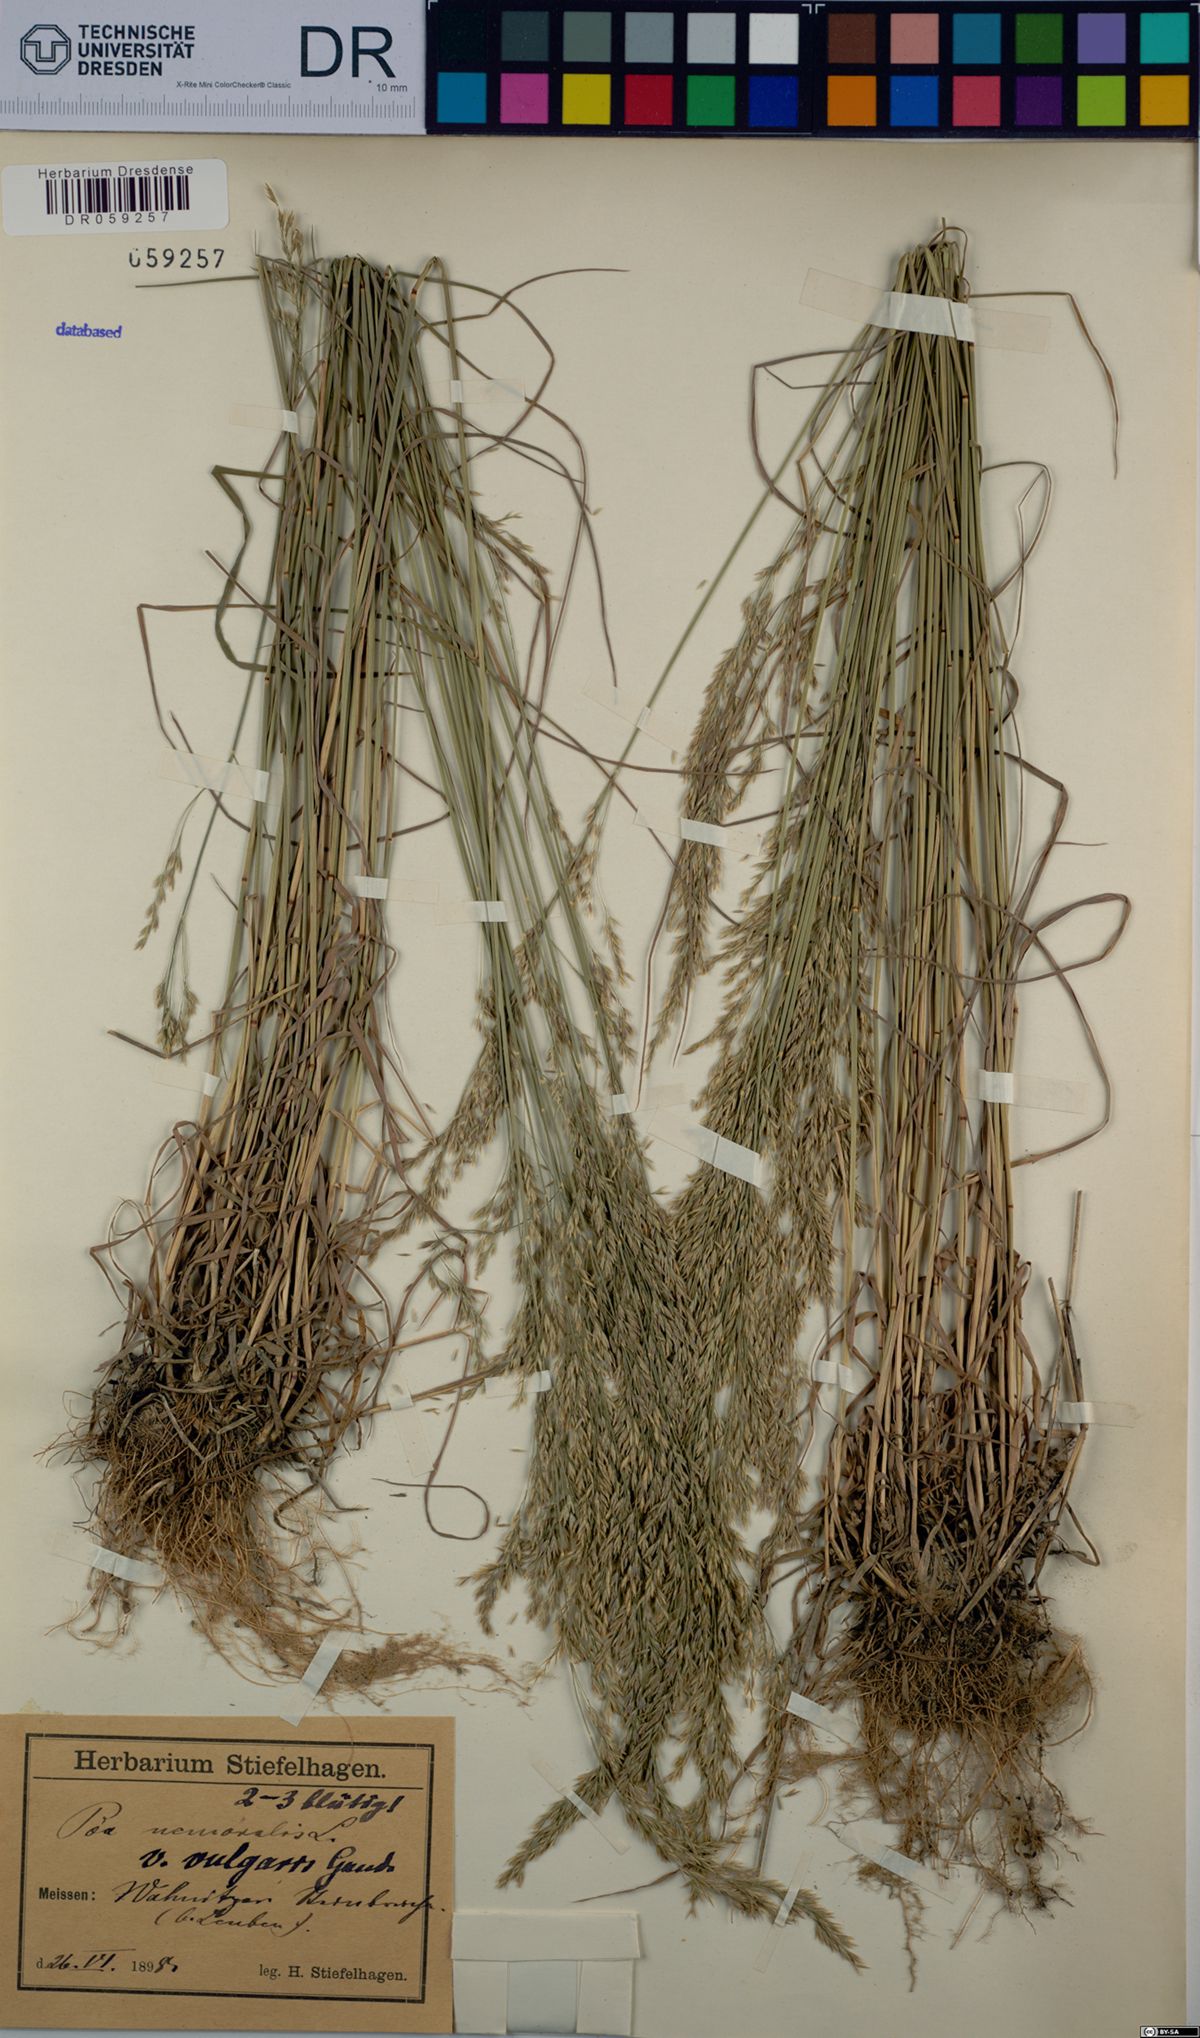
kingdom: Plantae
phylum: Tracheophyta
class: Liliopsida
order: Poales
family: Poaceae
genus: Poa
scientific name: Poa nemoralis
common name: Wood bluegrass
